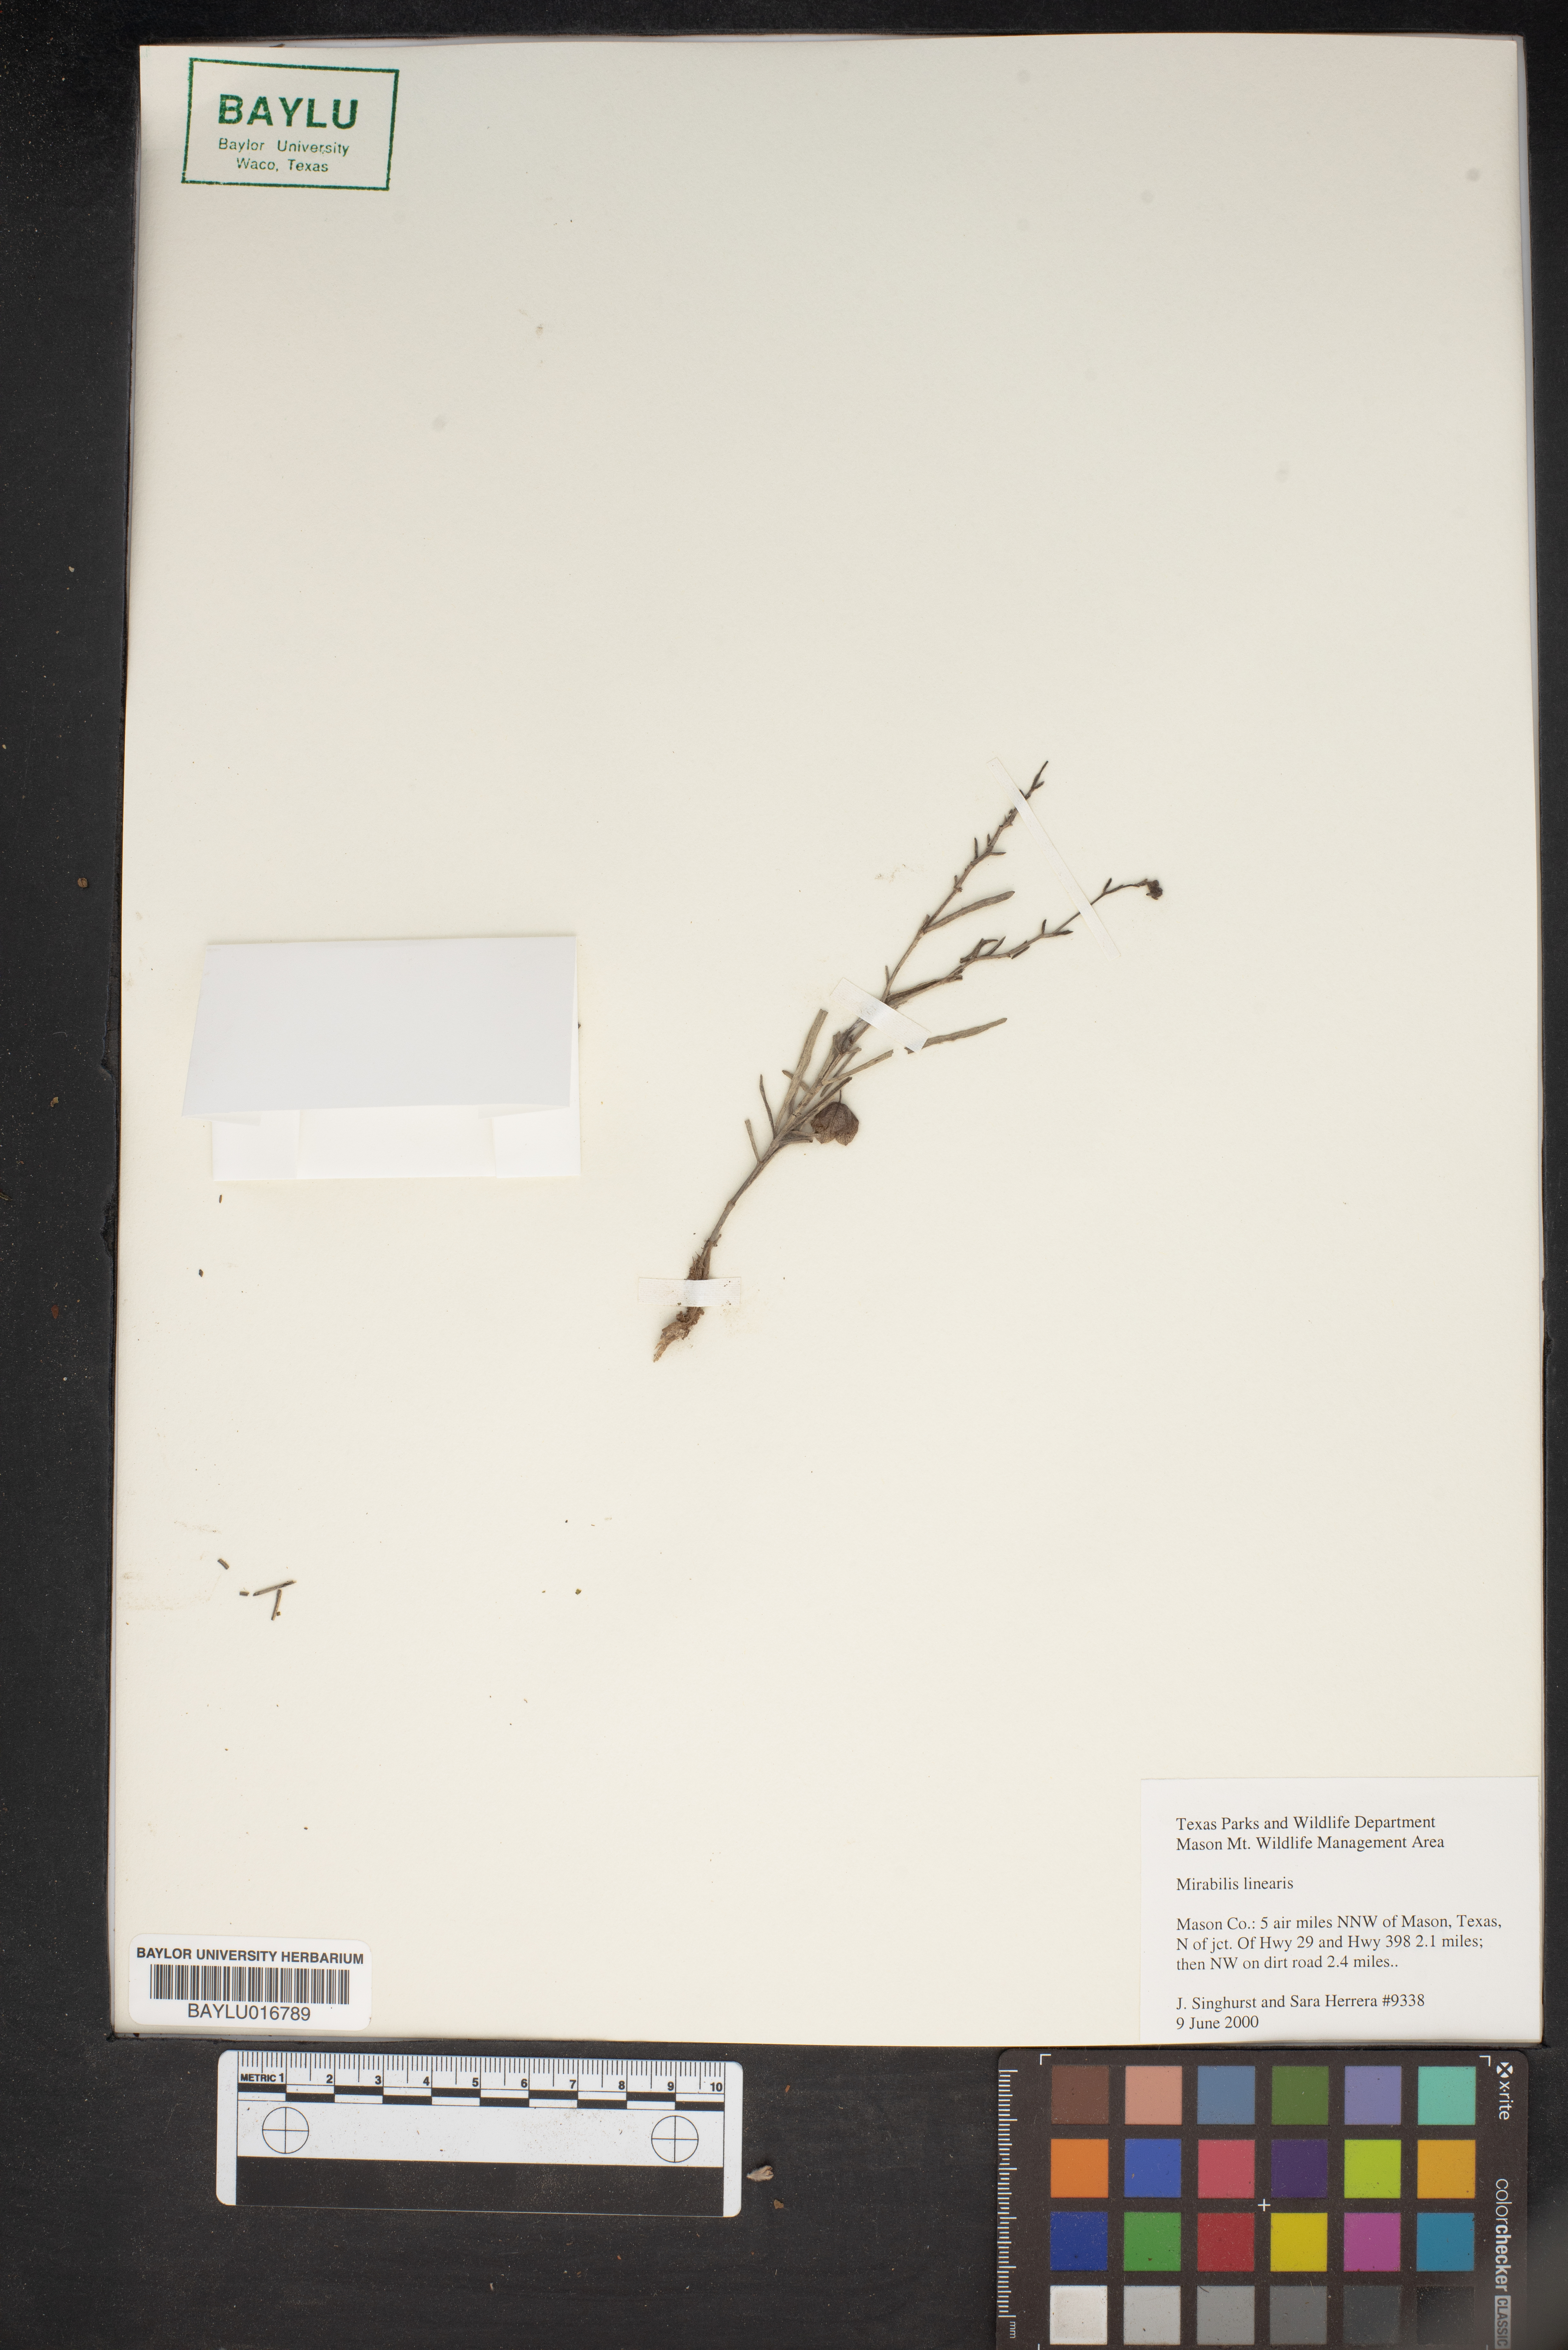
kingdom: Plantae
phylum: Tracheophyta
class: Magnoliopsida
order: Caryophyllales
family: Nyctaginaceae
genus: Mirabilis
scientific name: Mirabilis linearis
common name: Linear-leaved four-o'clock
